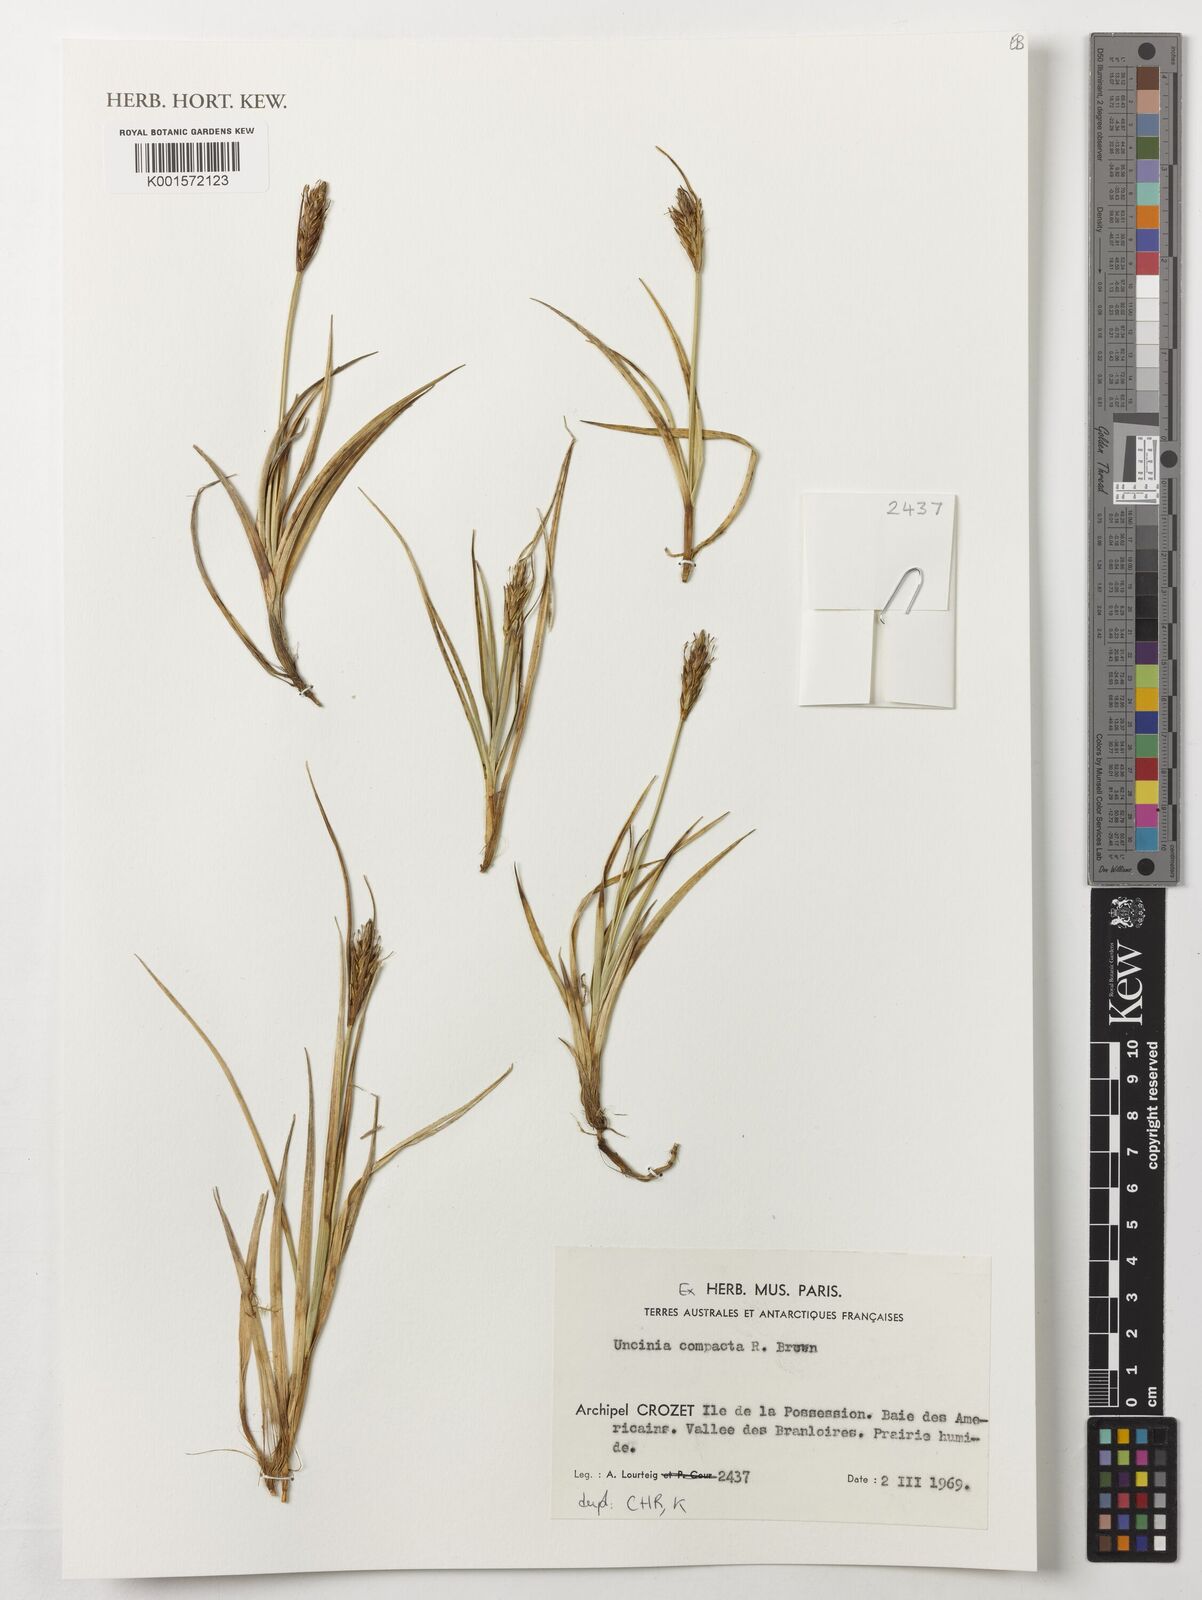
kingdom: Plantae
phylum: Tracheophyta
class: Liliopsida
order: Poales
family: Cyperaceae
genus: Carex
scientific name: Carex austrocompacta
